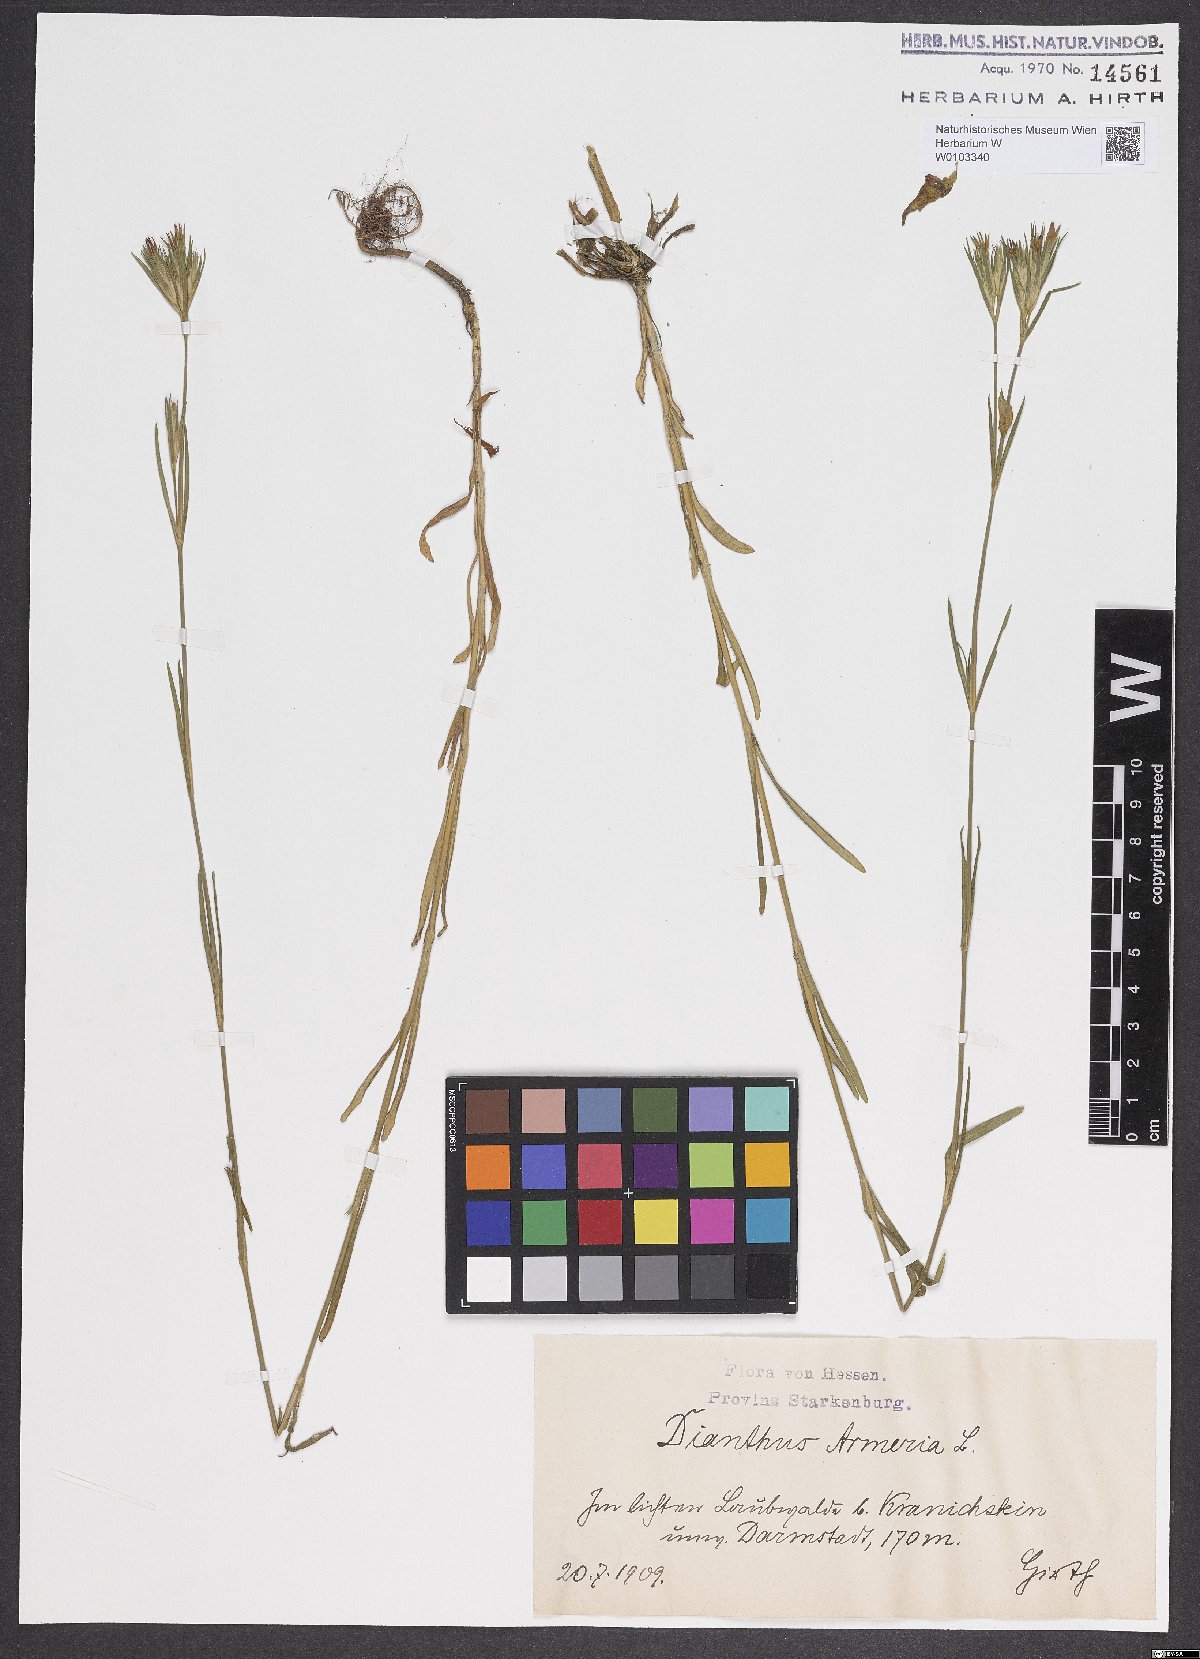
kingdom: Plantae
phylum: Tracheophyta
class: Magnoliopsida
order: Caryophyllales
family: Caryophyllaceae
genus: Dianthus
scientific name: Dianthus armeria
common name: Deptford pink
